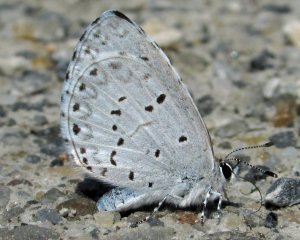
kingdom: Animalia
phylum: Arthropoda
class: Insecta
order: Lepidoptera
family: Lycaenidae
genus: Celastrina
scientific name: Celastrina lucia
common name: Northern Spring Azure
